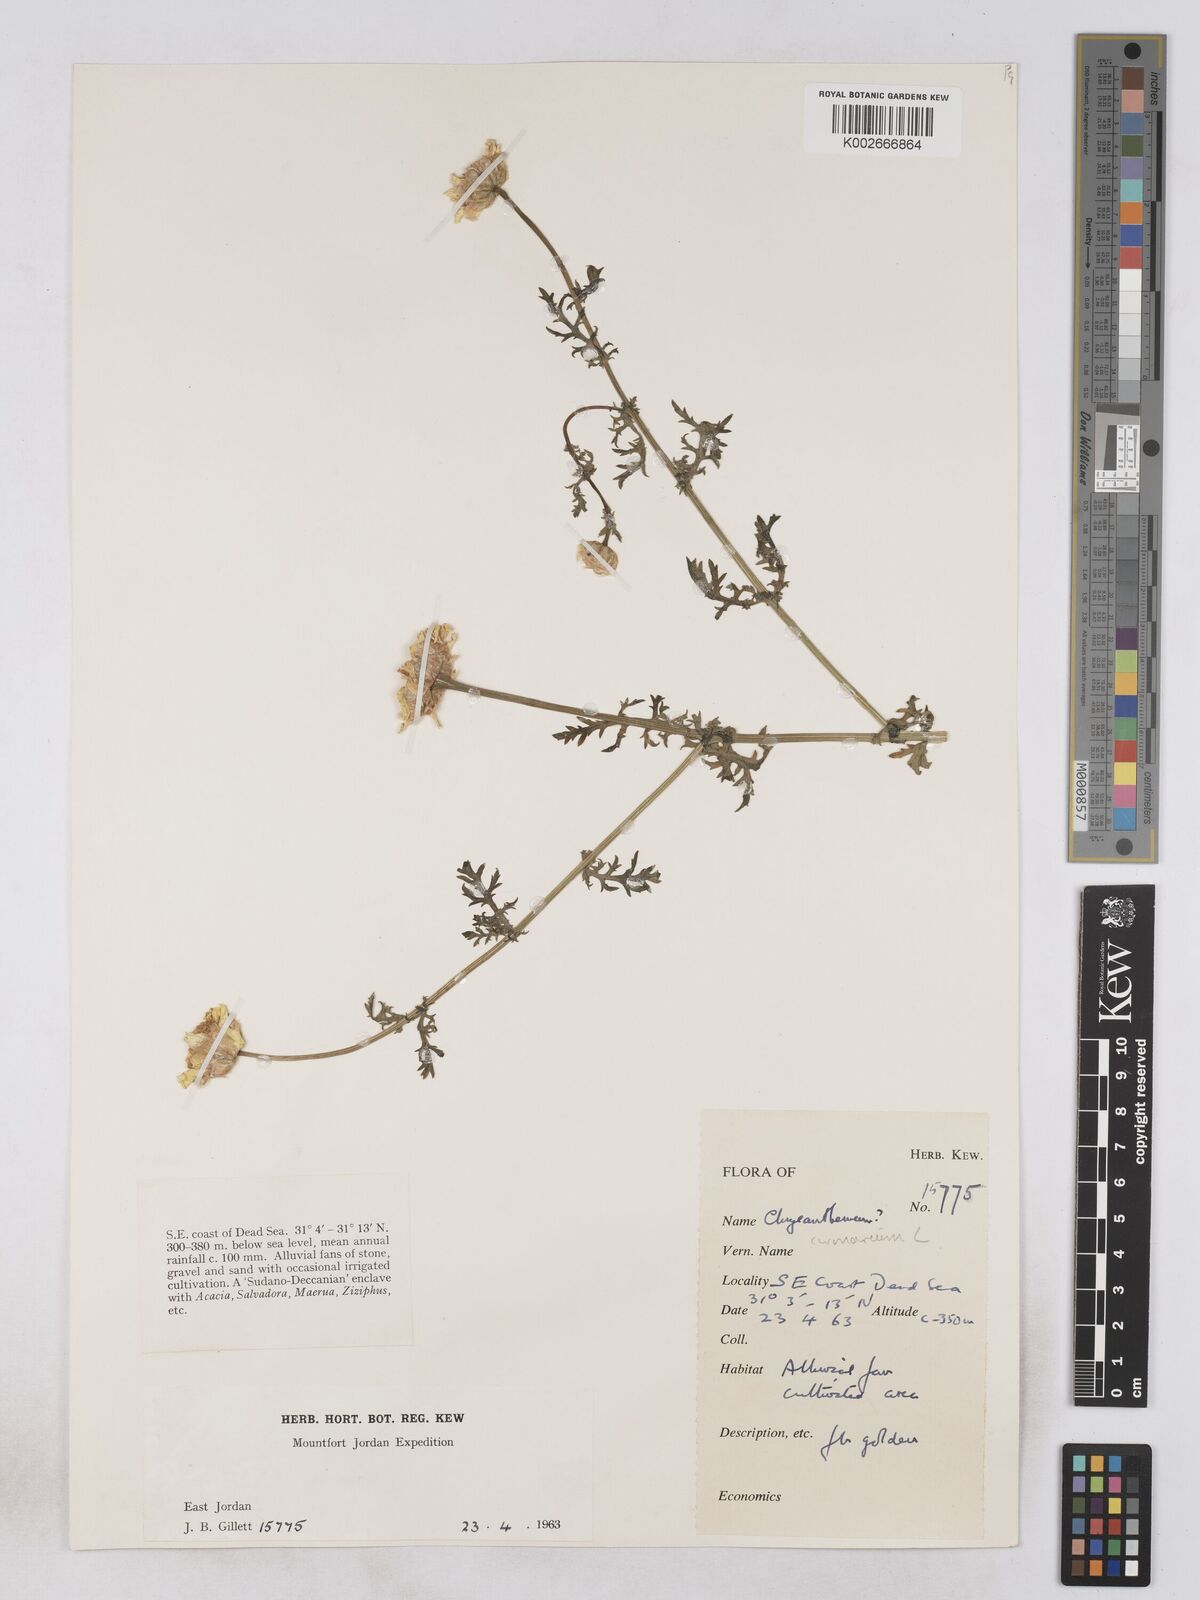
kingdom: Plantae
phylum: Tracheophyta
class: Magnoliopsida
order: Asterales
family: Asteraceae
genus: Glebionis
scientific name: Glebionis coronaria
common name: Crowndaisy
